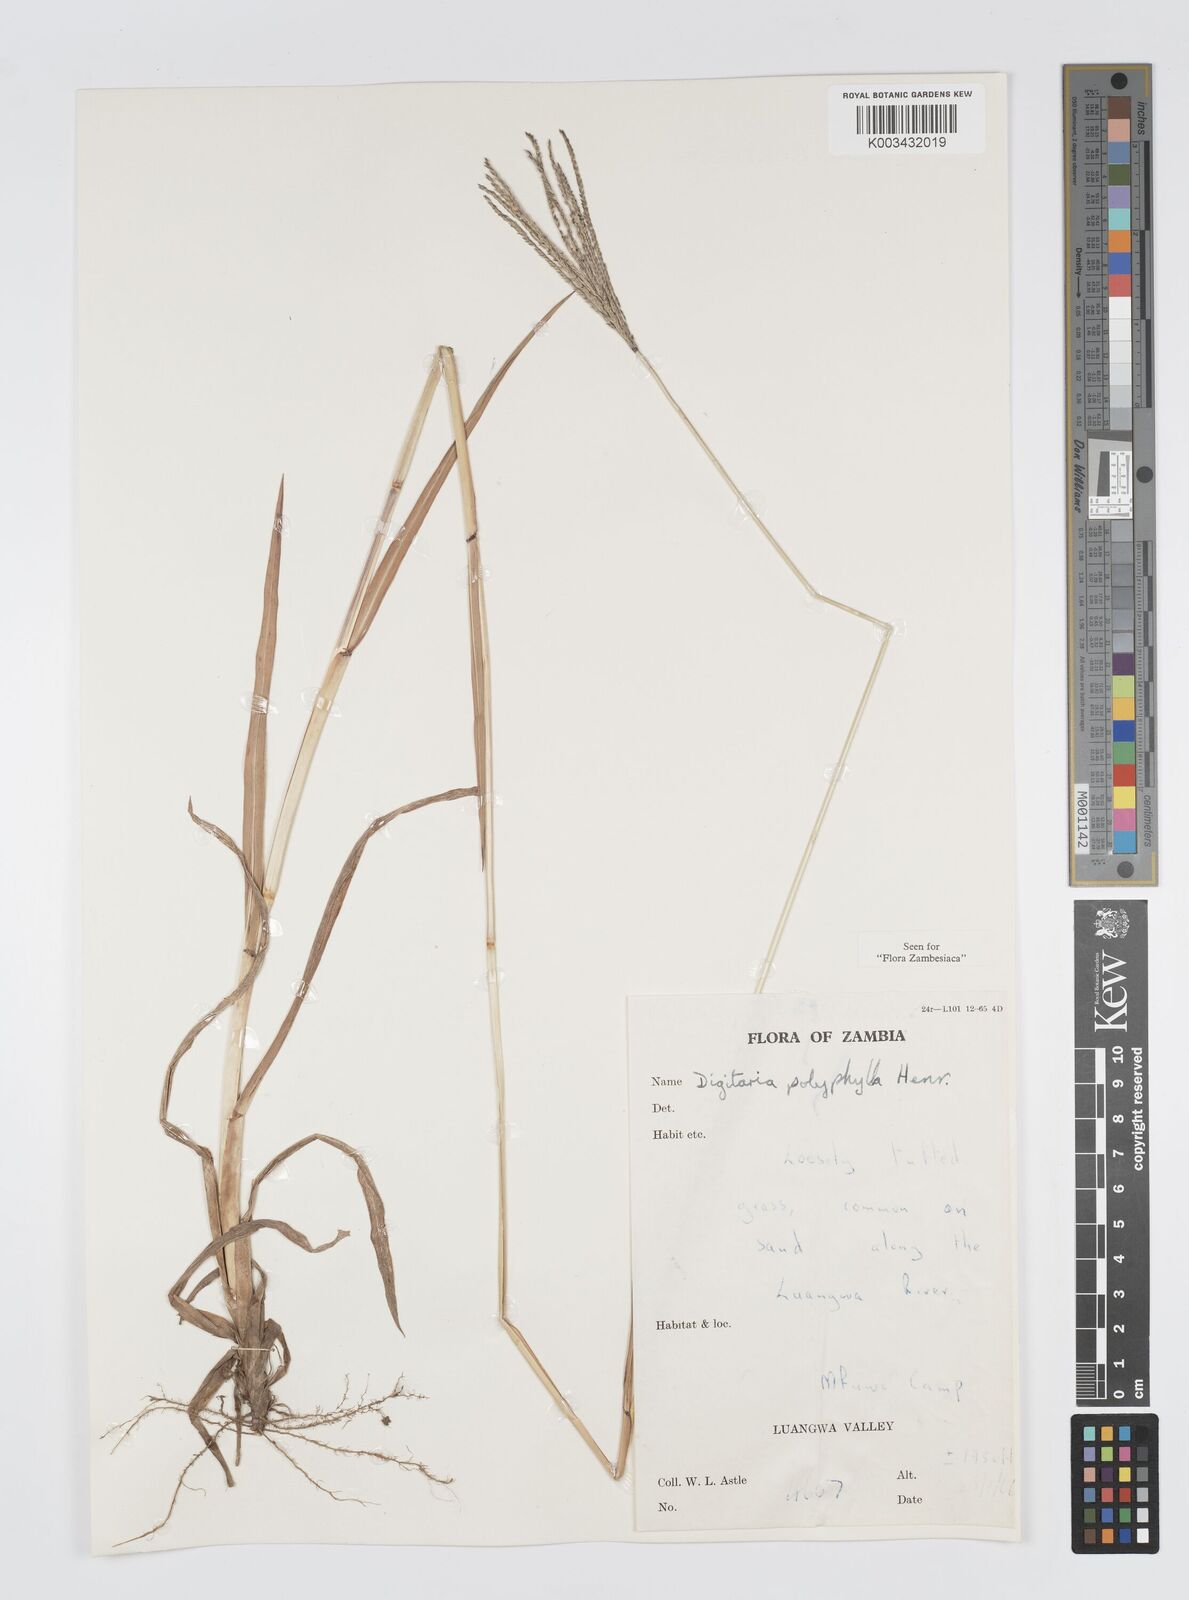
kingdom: Plantae
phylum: Tracheophyta
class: Liliopsida
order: Poales
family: Poaceae
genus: Digitaria
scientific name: Digitaria milanjiana
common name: Madagascar crabgrass
